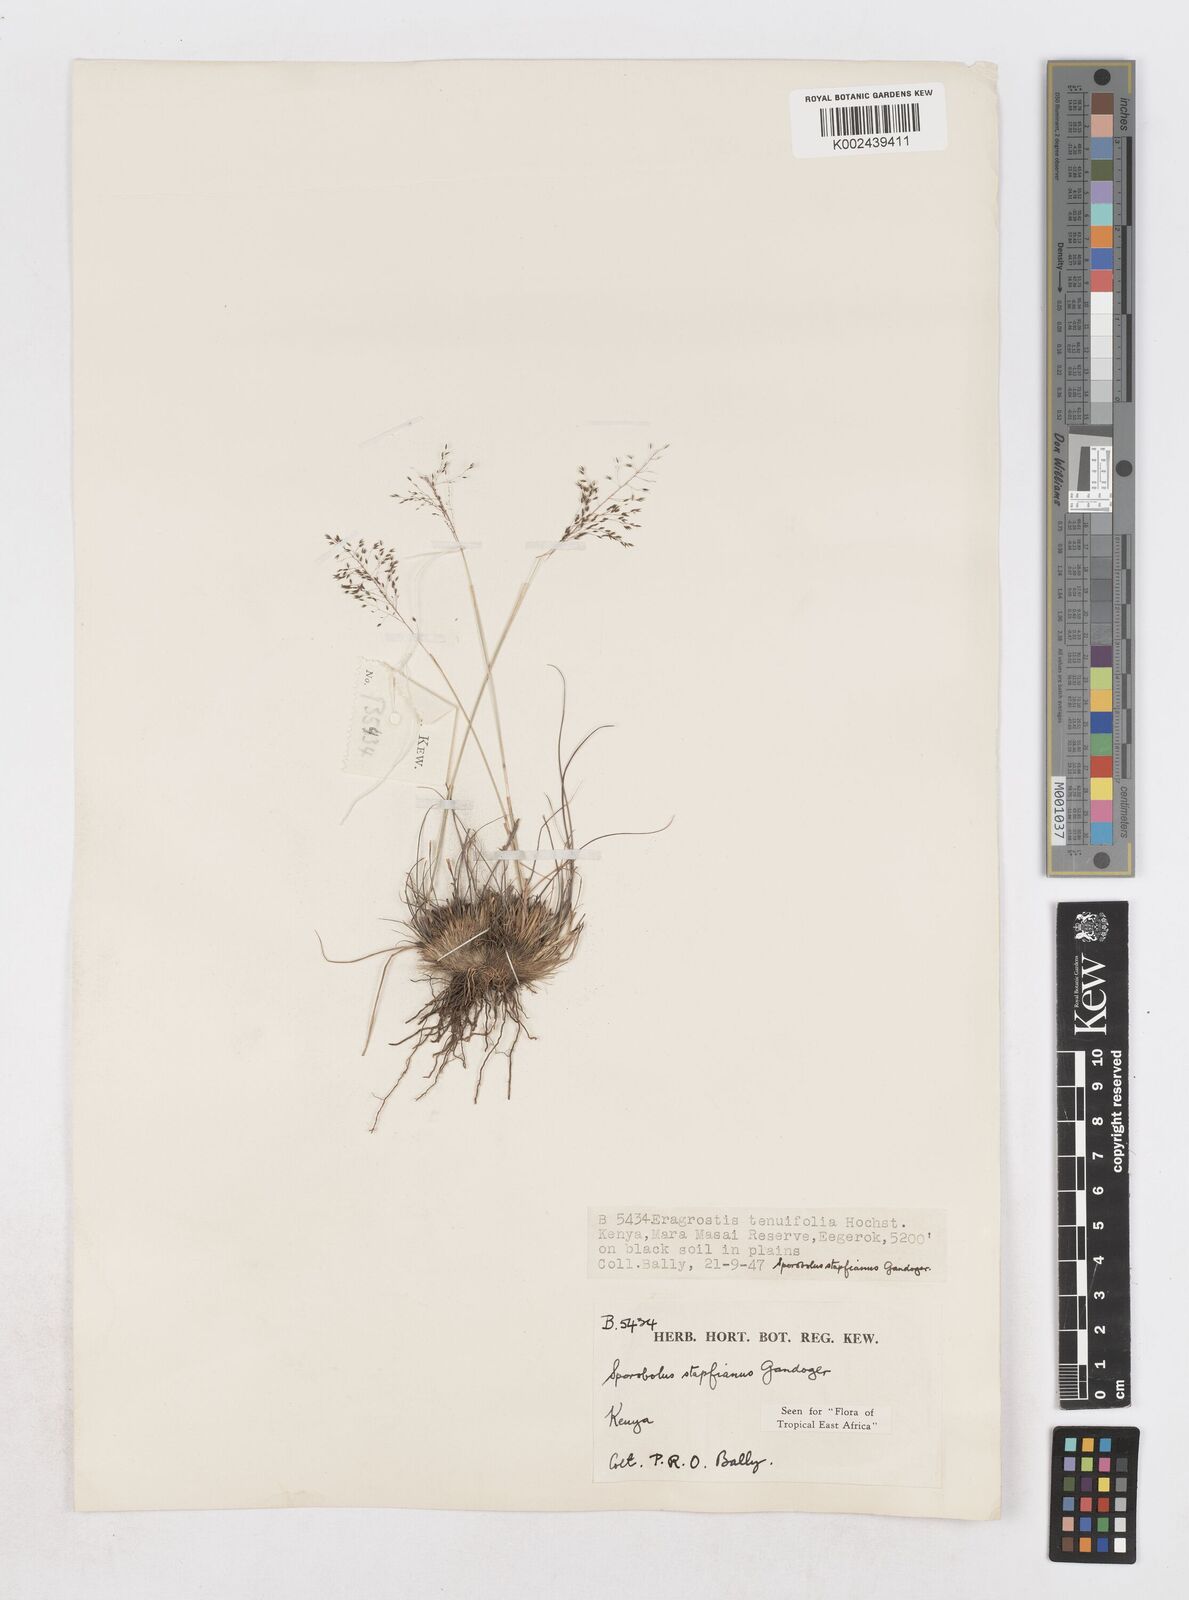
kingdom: Plantae
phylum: Tracheophyta
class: Liliopsida
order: Poales
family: Poaceae
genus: Sporobolus
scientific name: Sporobolus stapfianus
